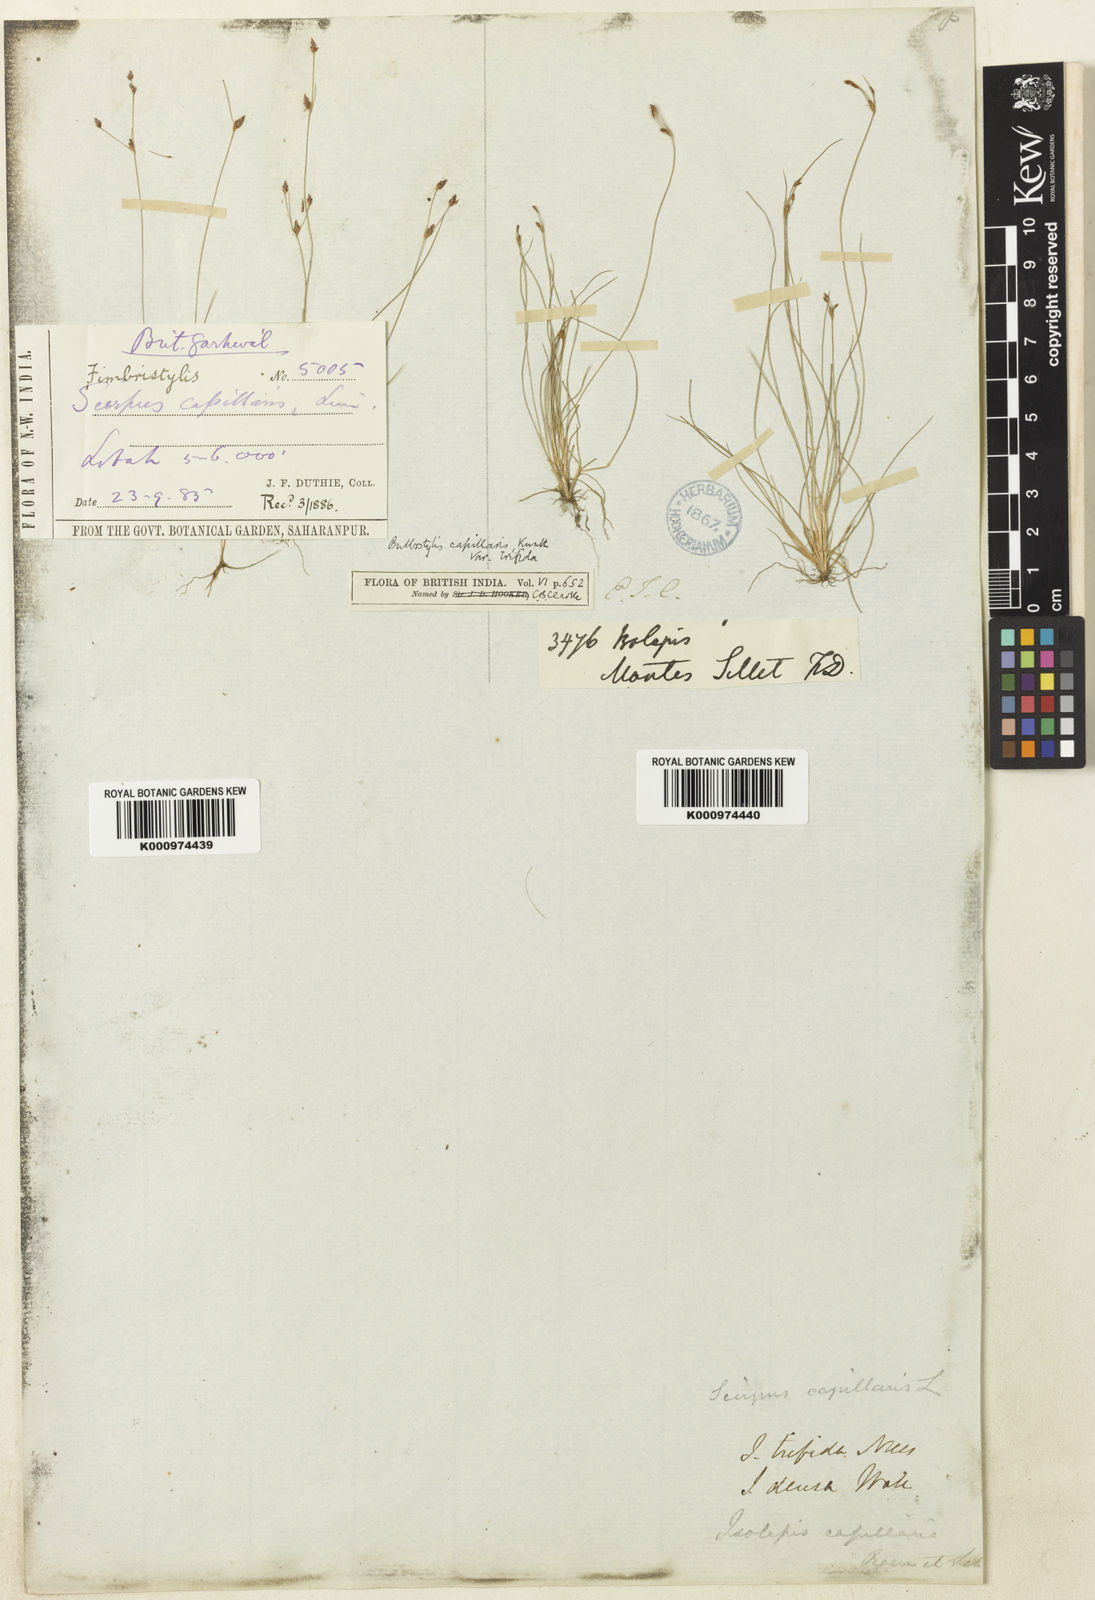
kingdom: Plantae
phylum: Tracheophyta
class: Liliopsida
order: Poales
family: Cyperaceae
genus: Bulbostylis
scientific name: Bulbostylis capillaris
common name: Densetuft hairsedge
